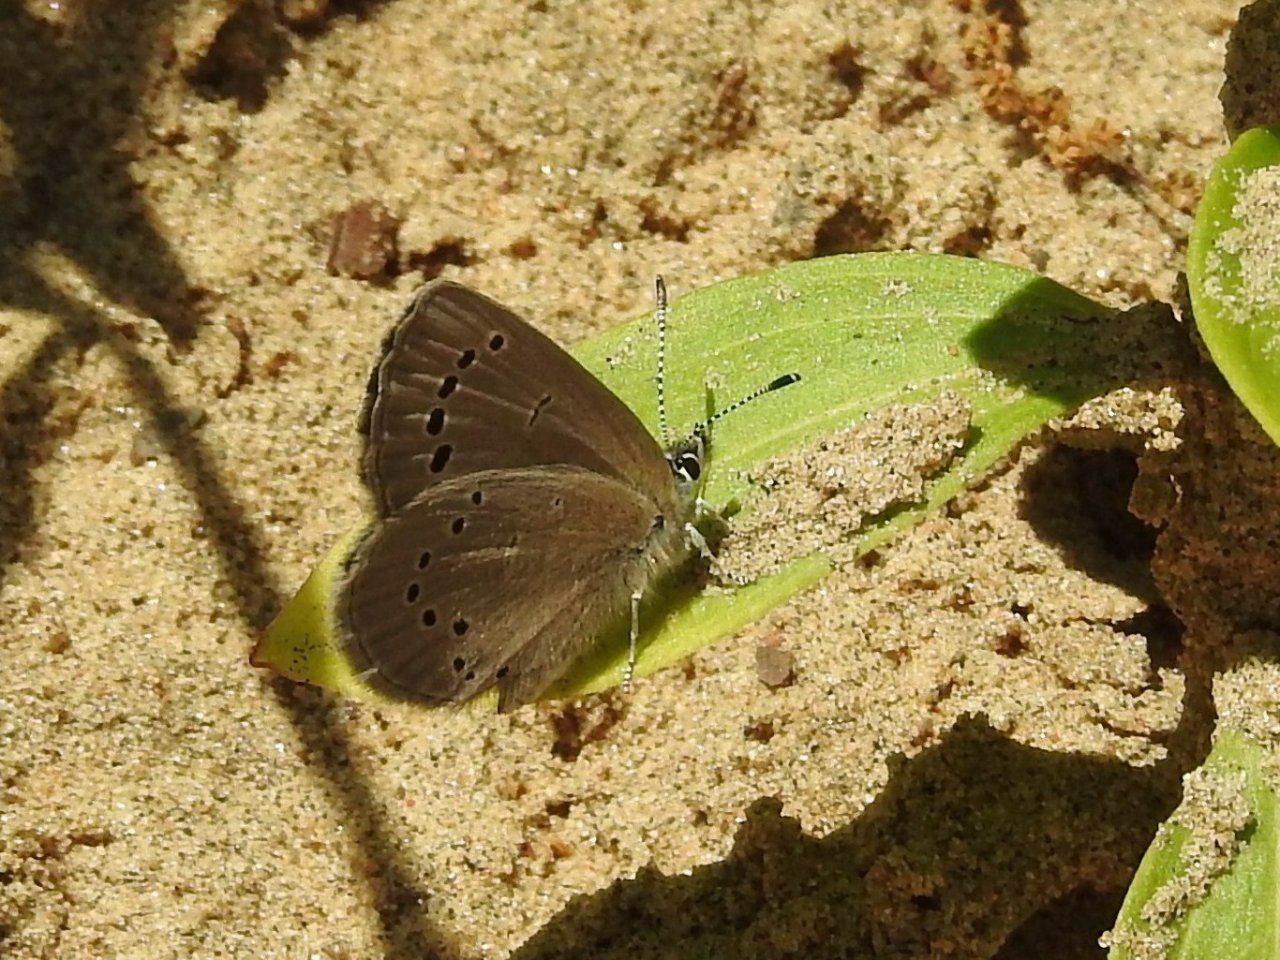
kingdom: Animalia
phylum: Arthropoda
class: Insecta
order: Lepidoptera
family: Lycaenidae
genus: Glaucopsyche
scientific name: Glaucopsyche lygdamus
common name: Silvery Blue
